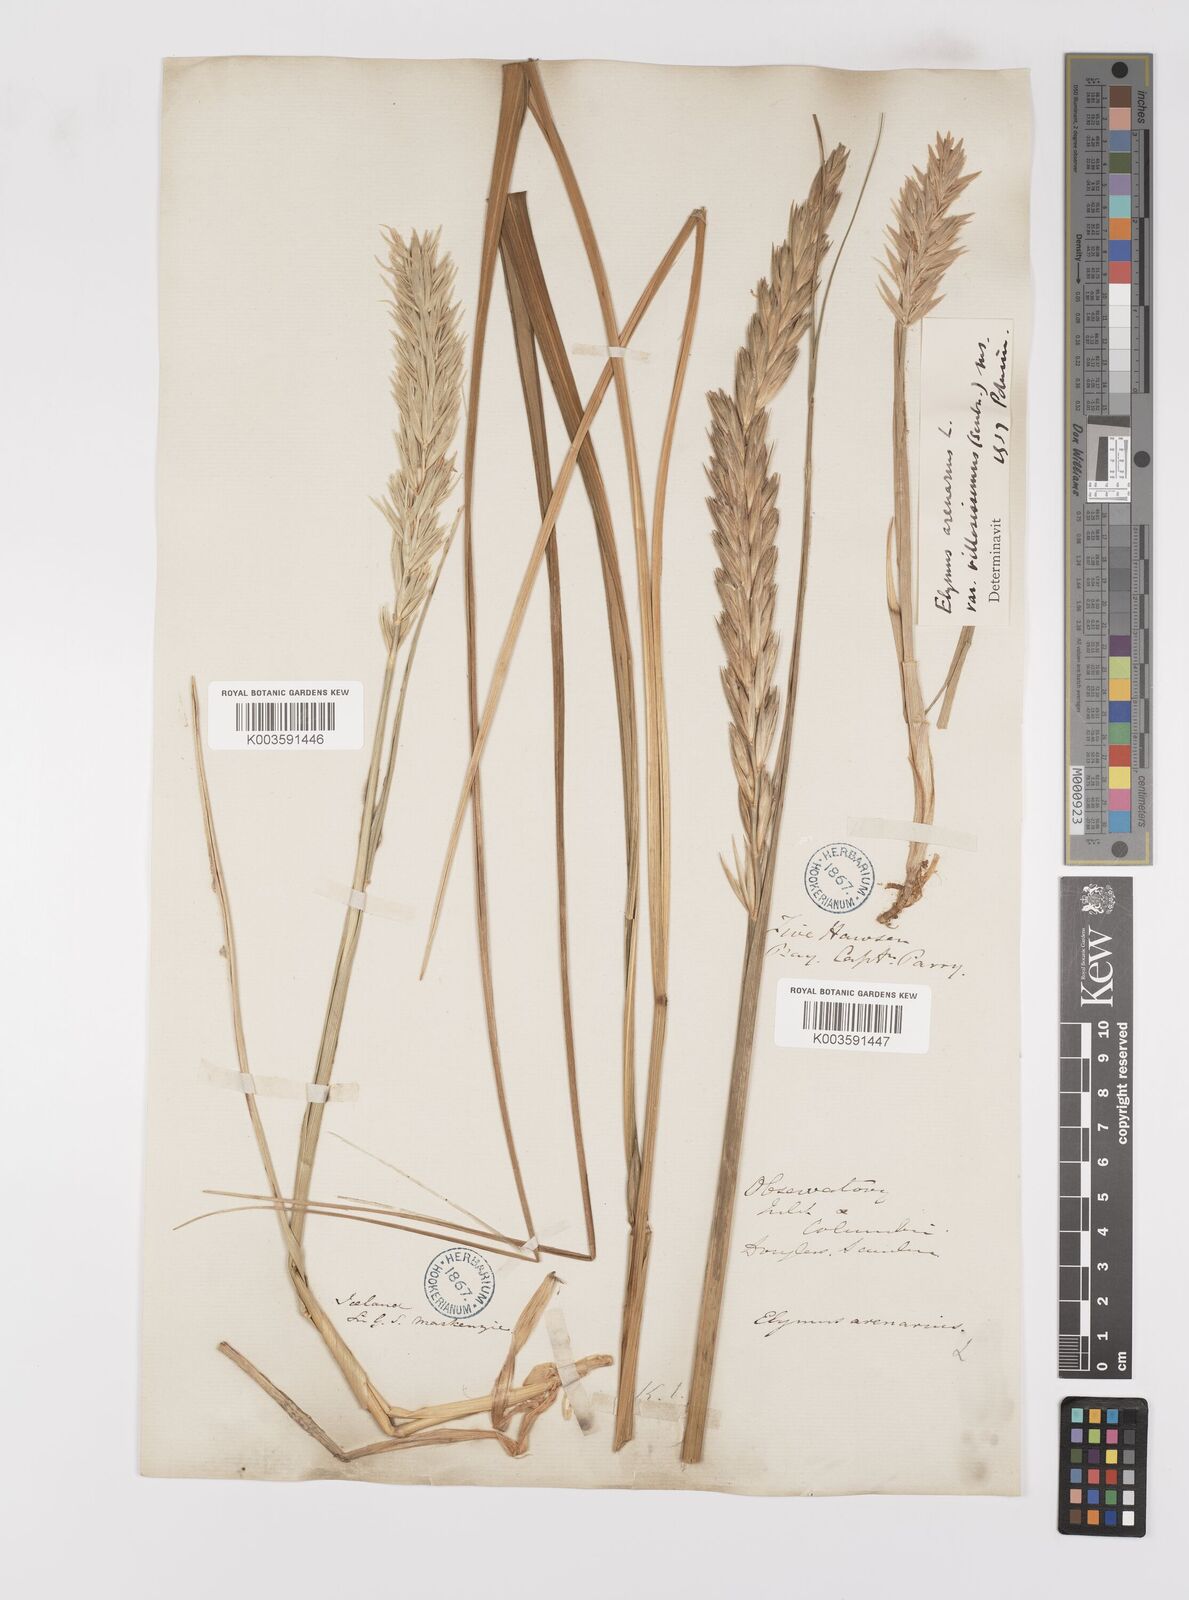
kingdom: Plantae
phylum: Tracheophyta
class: Liliopsida
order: Poales
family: Poaceae
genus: Leymus
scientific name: Leymus mollis
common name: American dune grass
